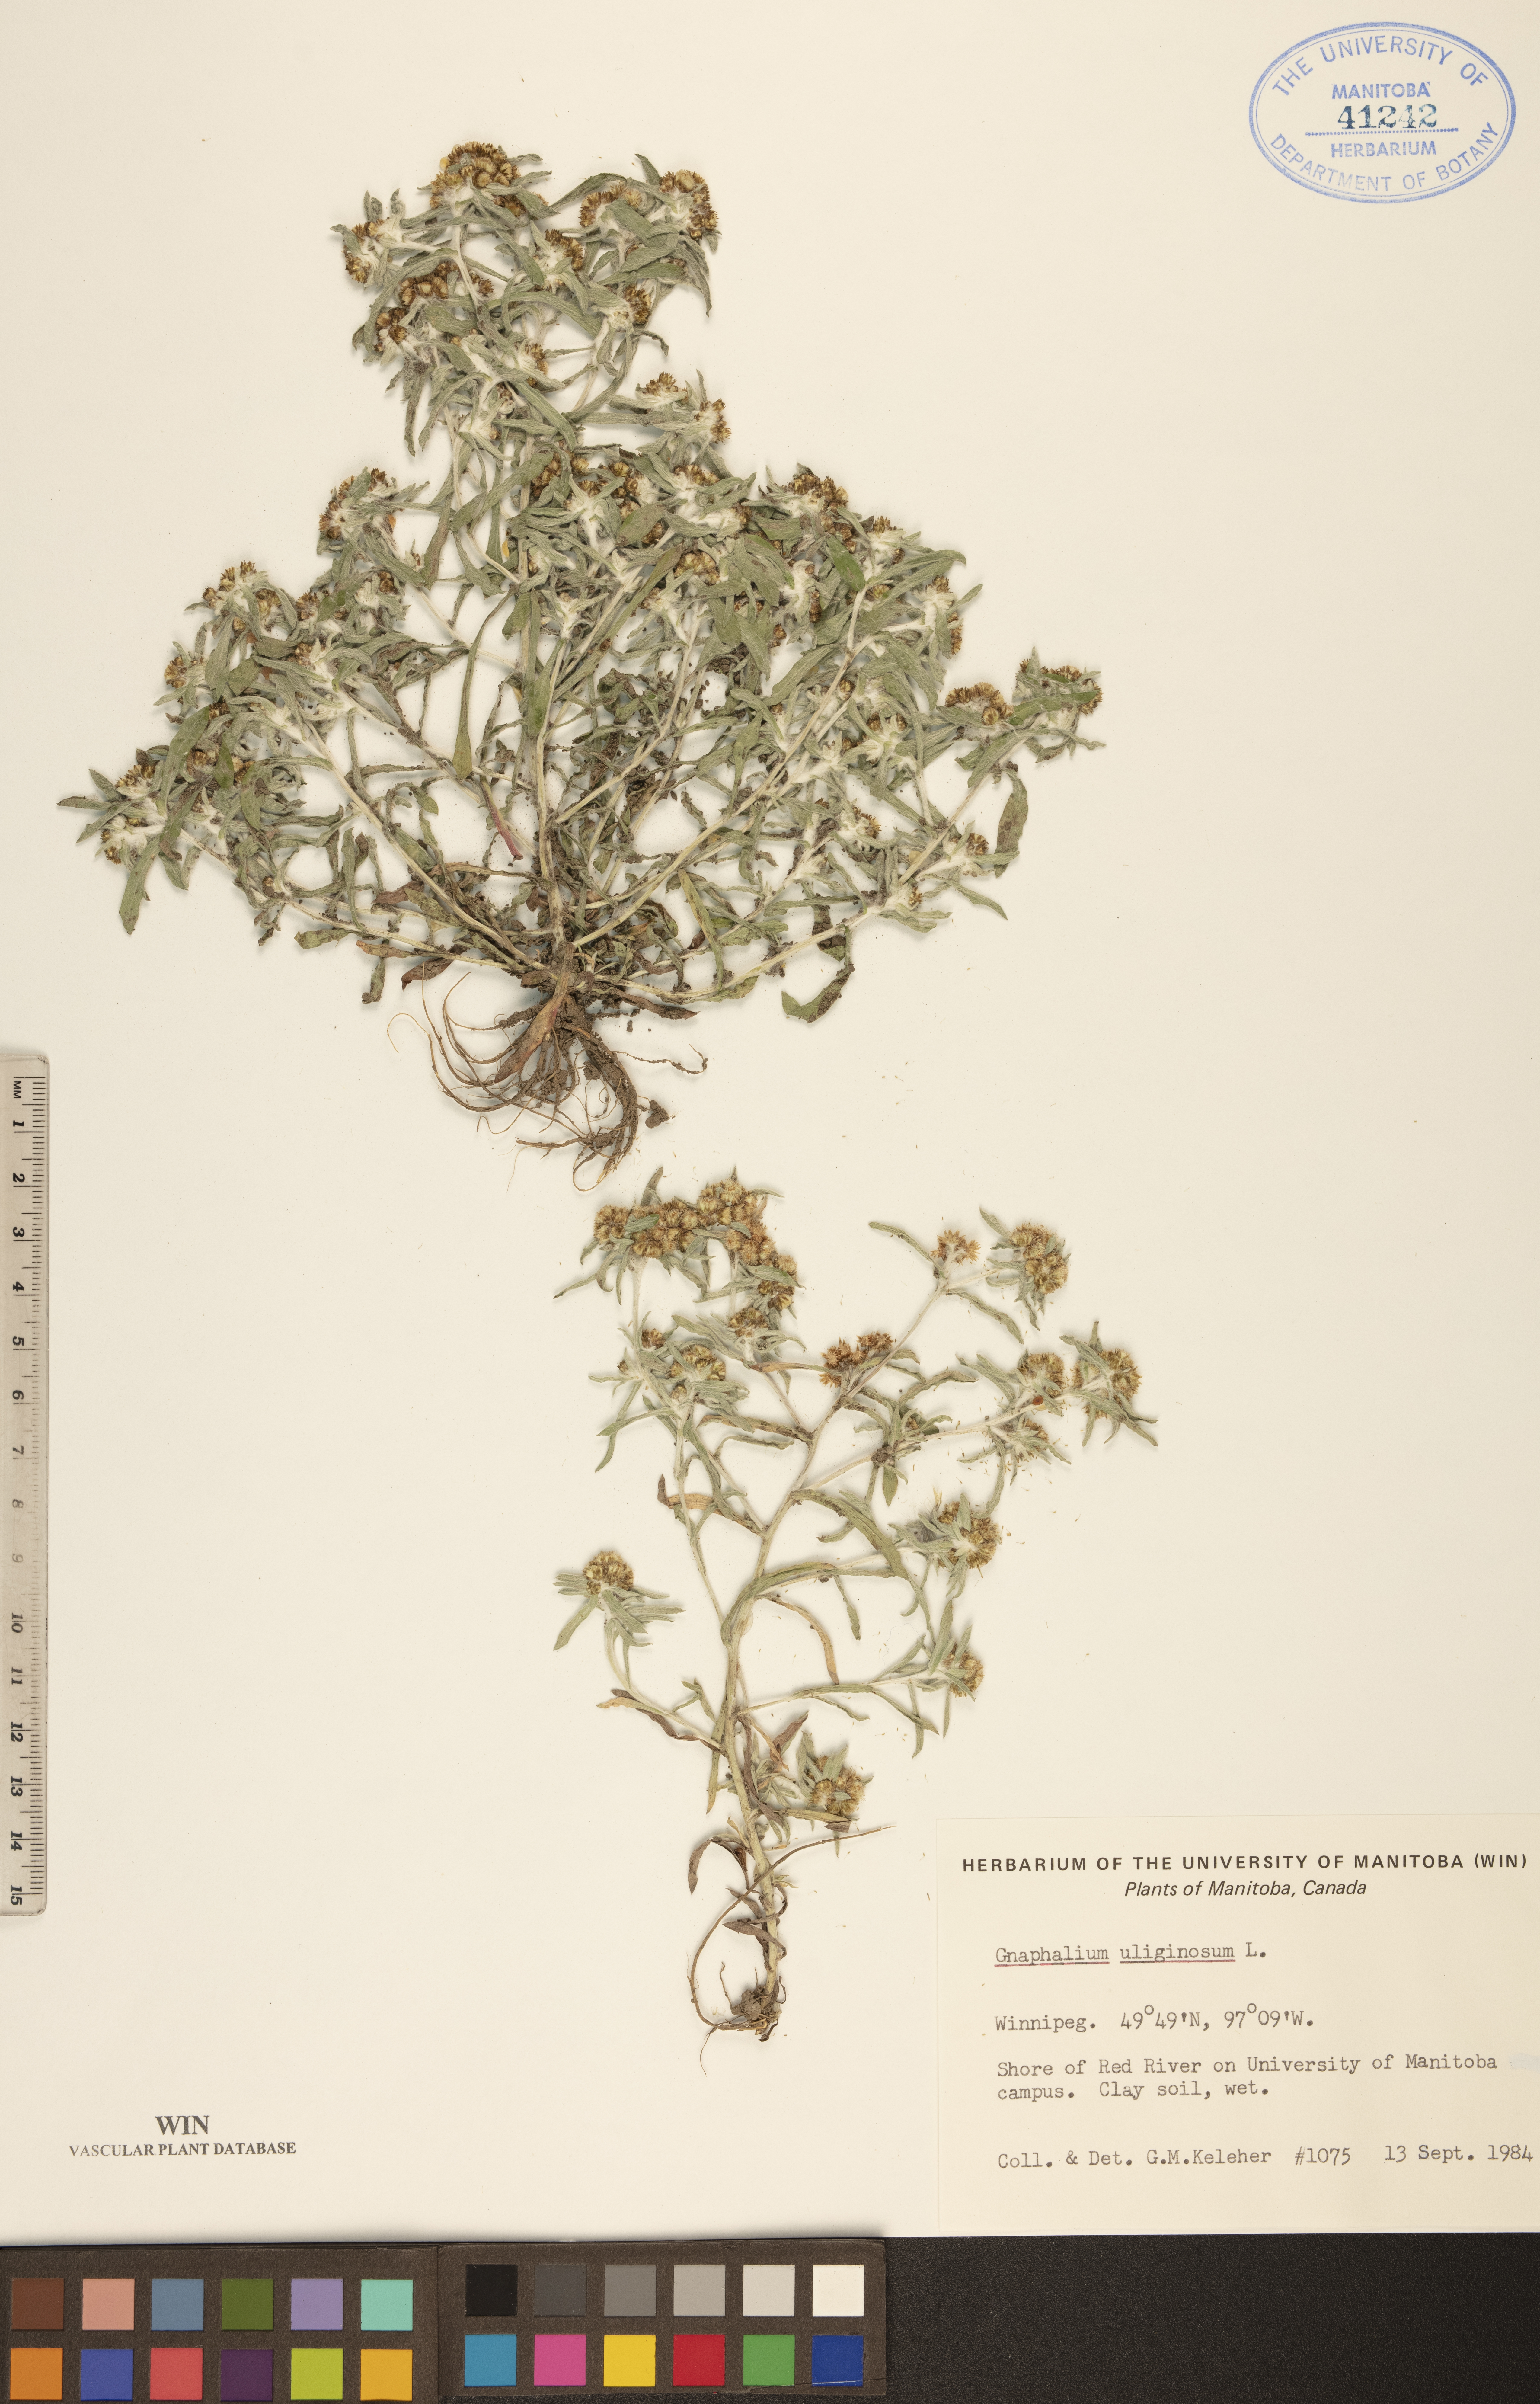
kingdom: Plantae
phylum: Tracheophyta
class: Magnoliopsida
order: Asterales
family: Asteraceae
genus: Gnaphalium
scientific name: Gnaphalium uliginosum
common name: Marsh cudweed
